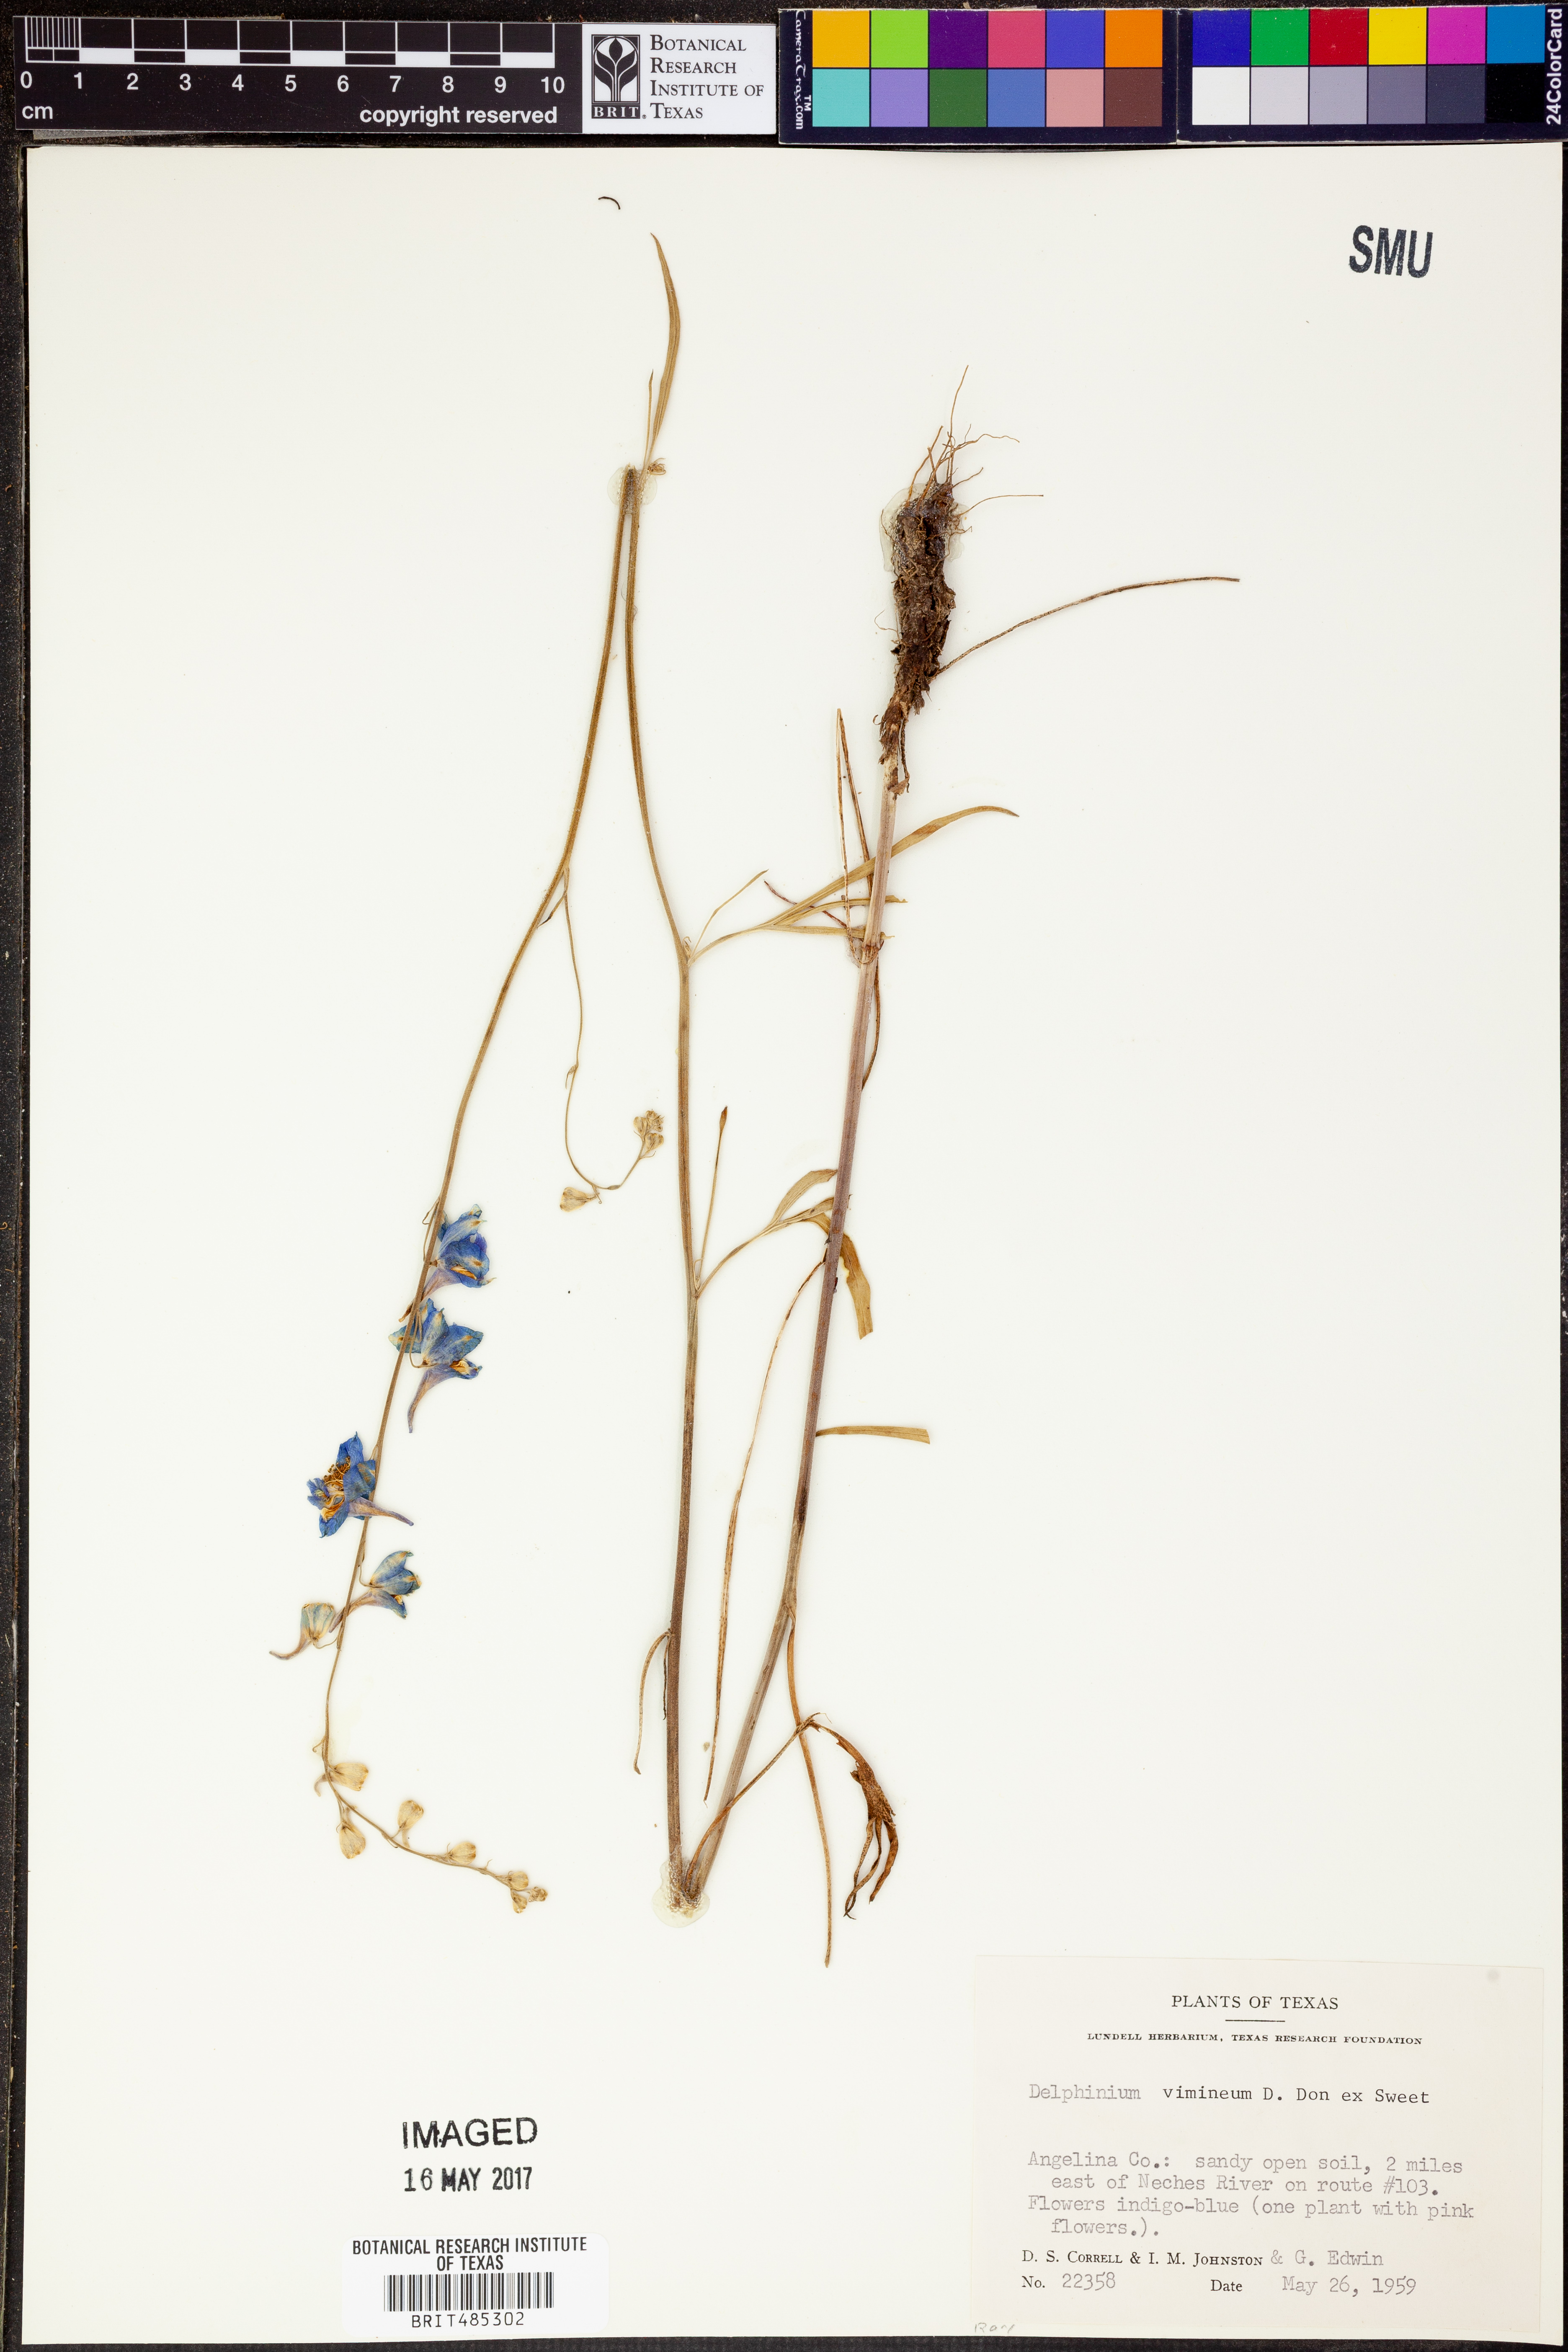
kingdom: Plantae
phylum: Tracheophyta
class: Magnoliopsida
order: Ranunculales
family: Ranunculaceae
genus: Delphinium
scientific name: Delphinium carolinianum
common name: Carolina larkspur
